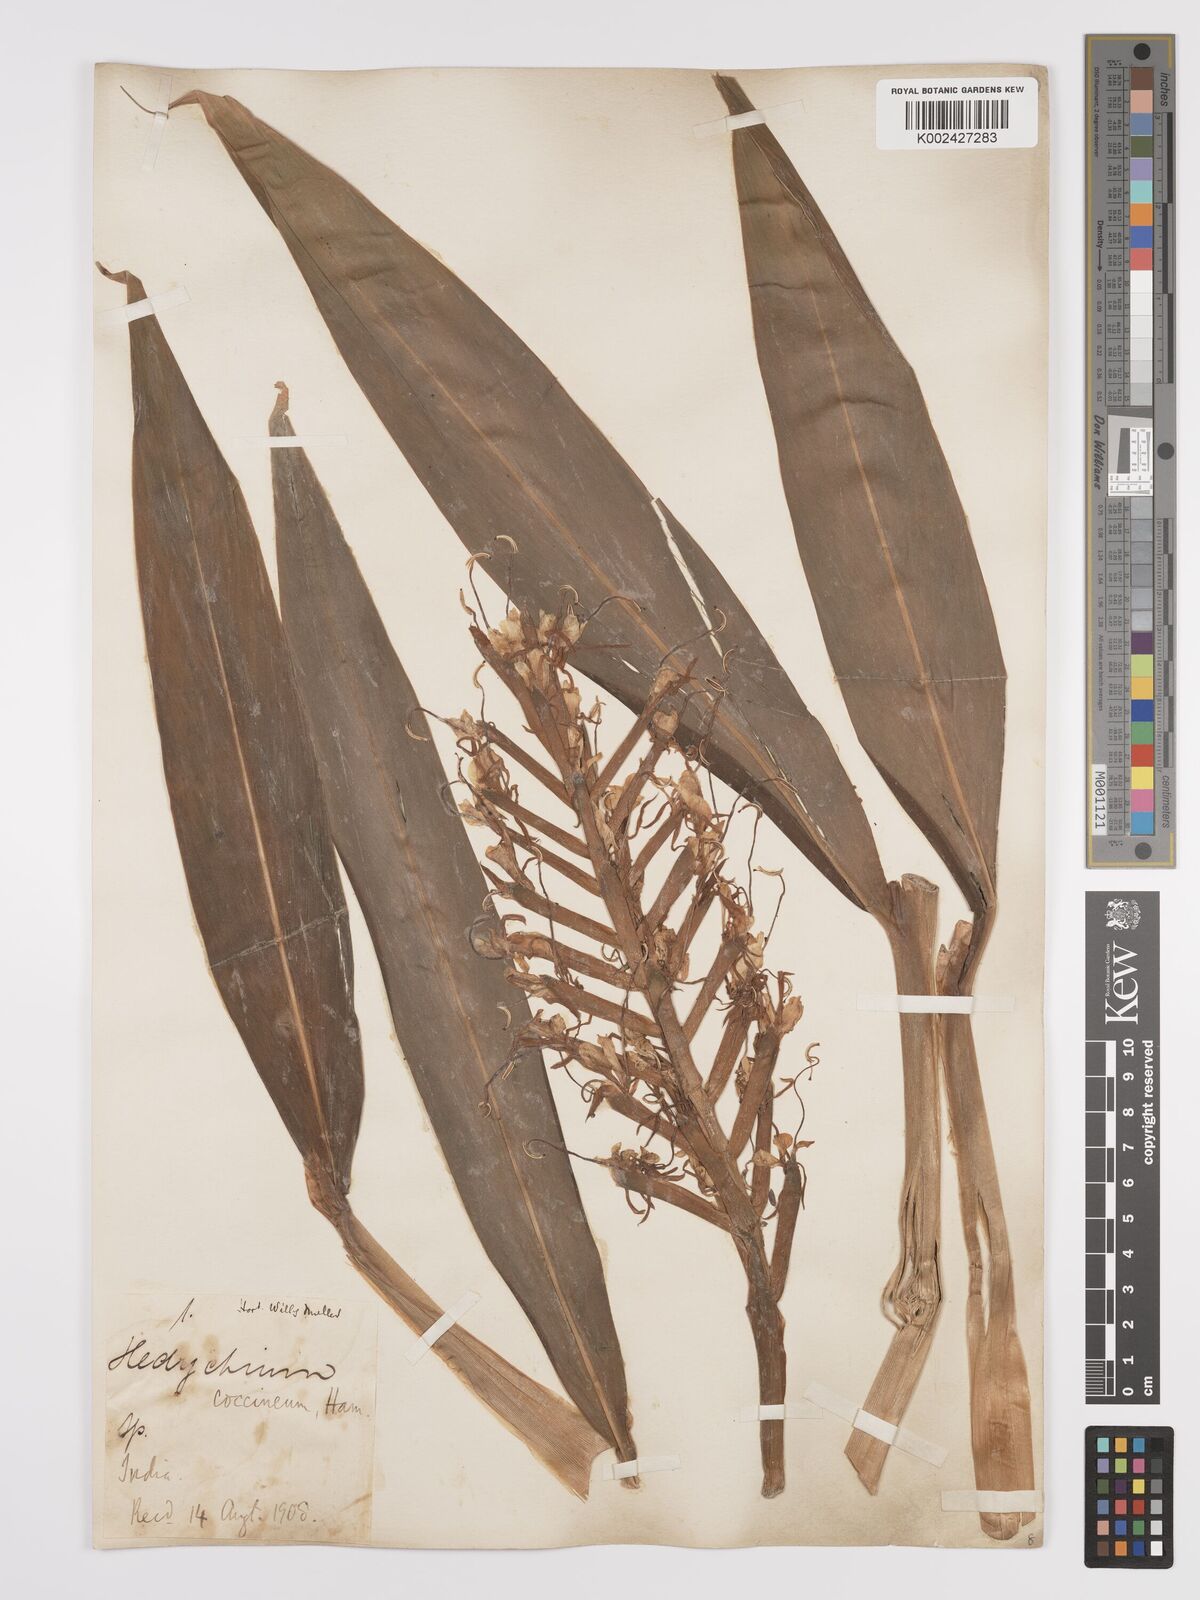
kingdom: Plantae
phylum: Tracheophyta
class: Liliopsida
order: Zingiberales
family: Zingiberaceae
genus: Hedychium
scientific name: Hedychium coccineum
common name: Red ginger-lily
